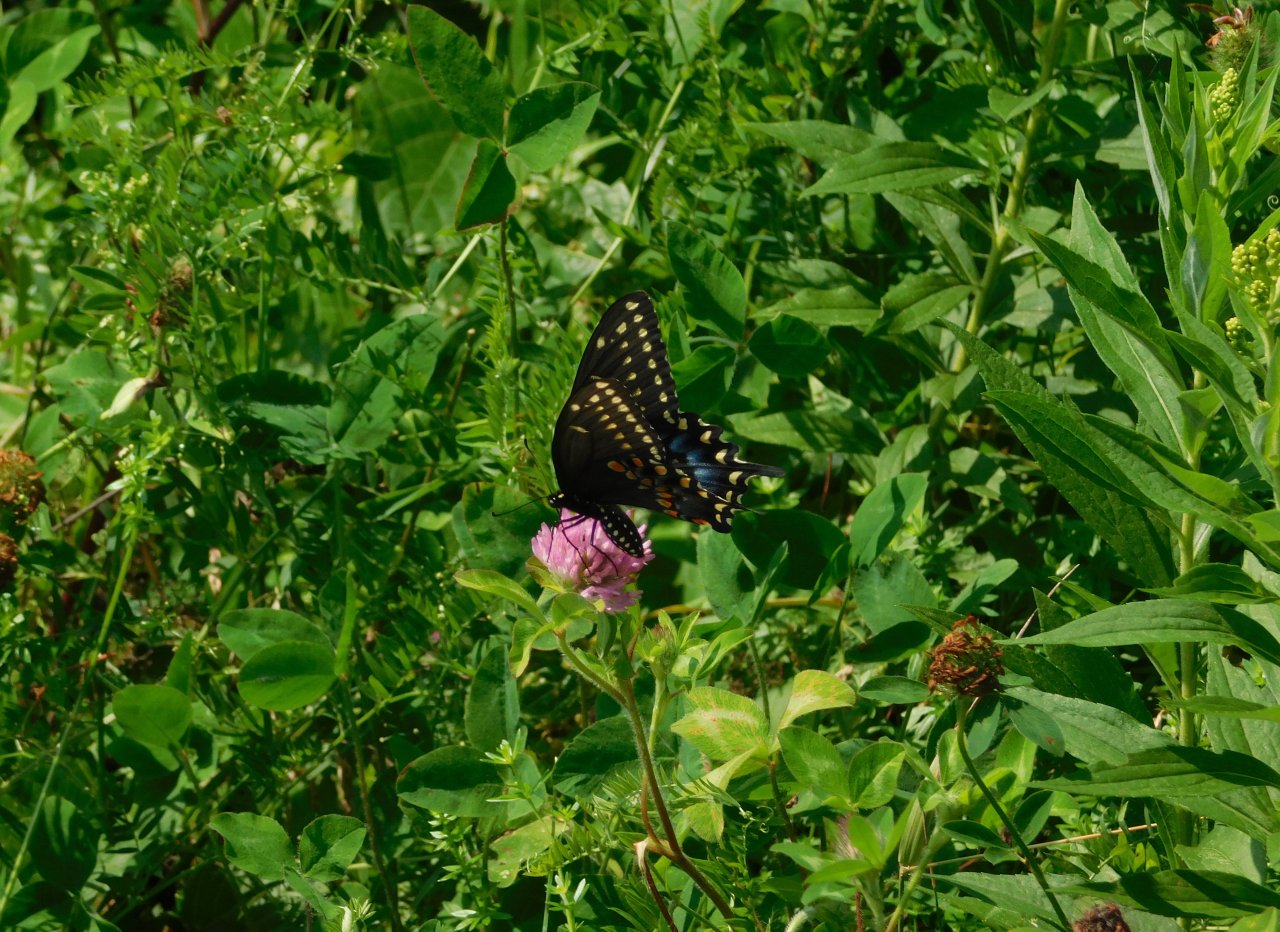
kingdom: Animalia
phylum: Arthropoda
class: Insecta
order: Lepidoptera
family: Papilionidae
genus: Papilio
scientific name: Papilio polyxenes
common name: Black Swallowtail
